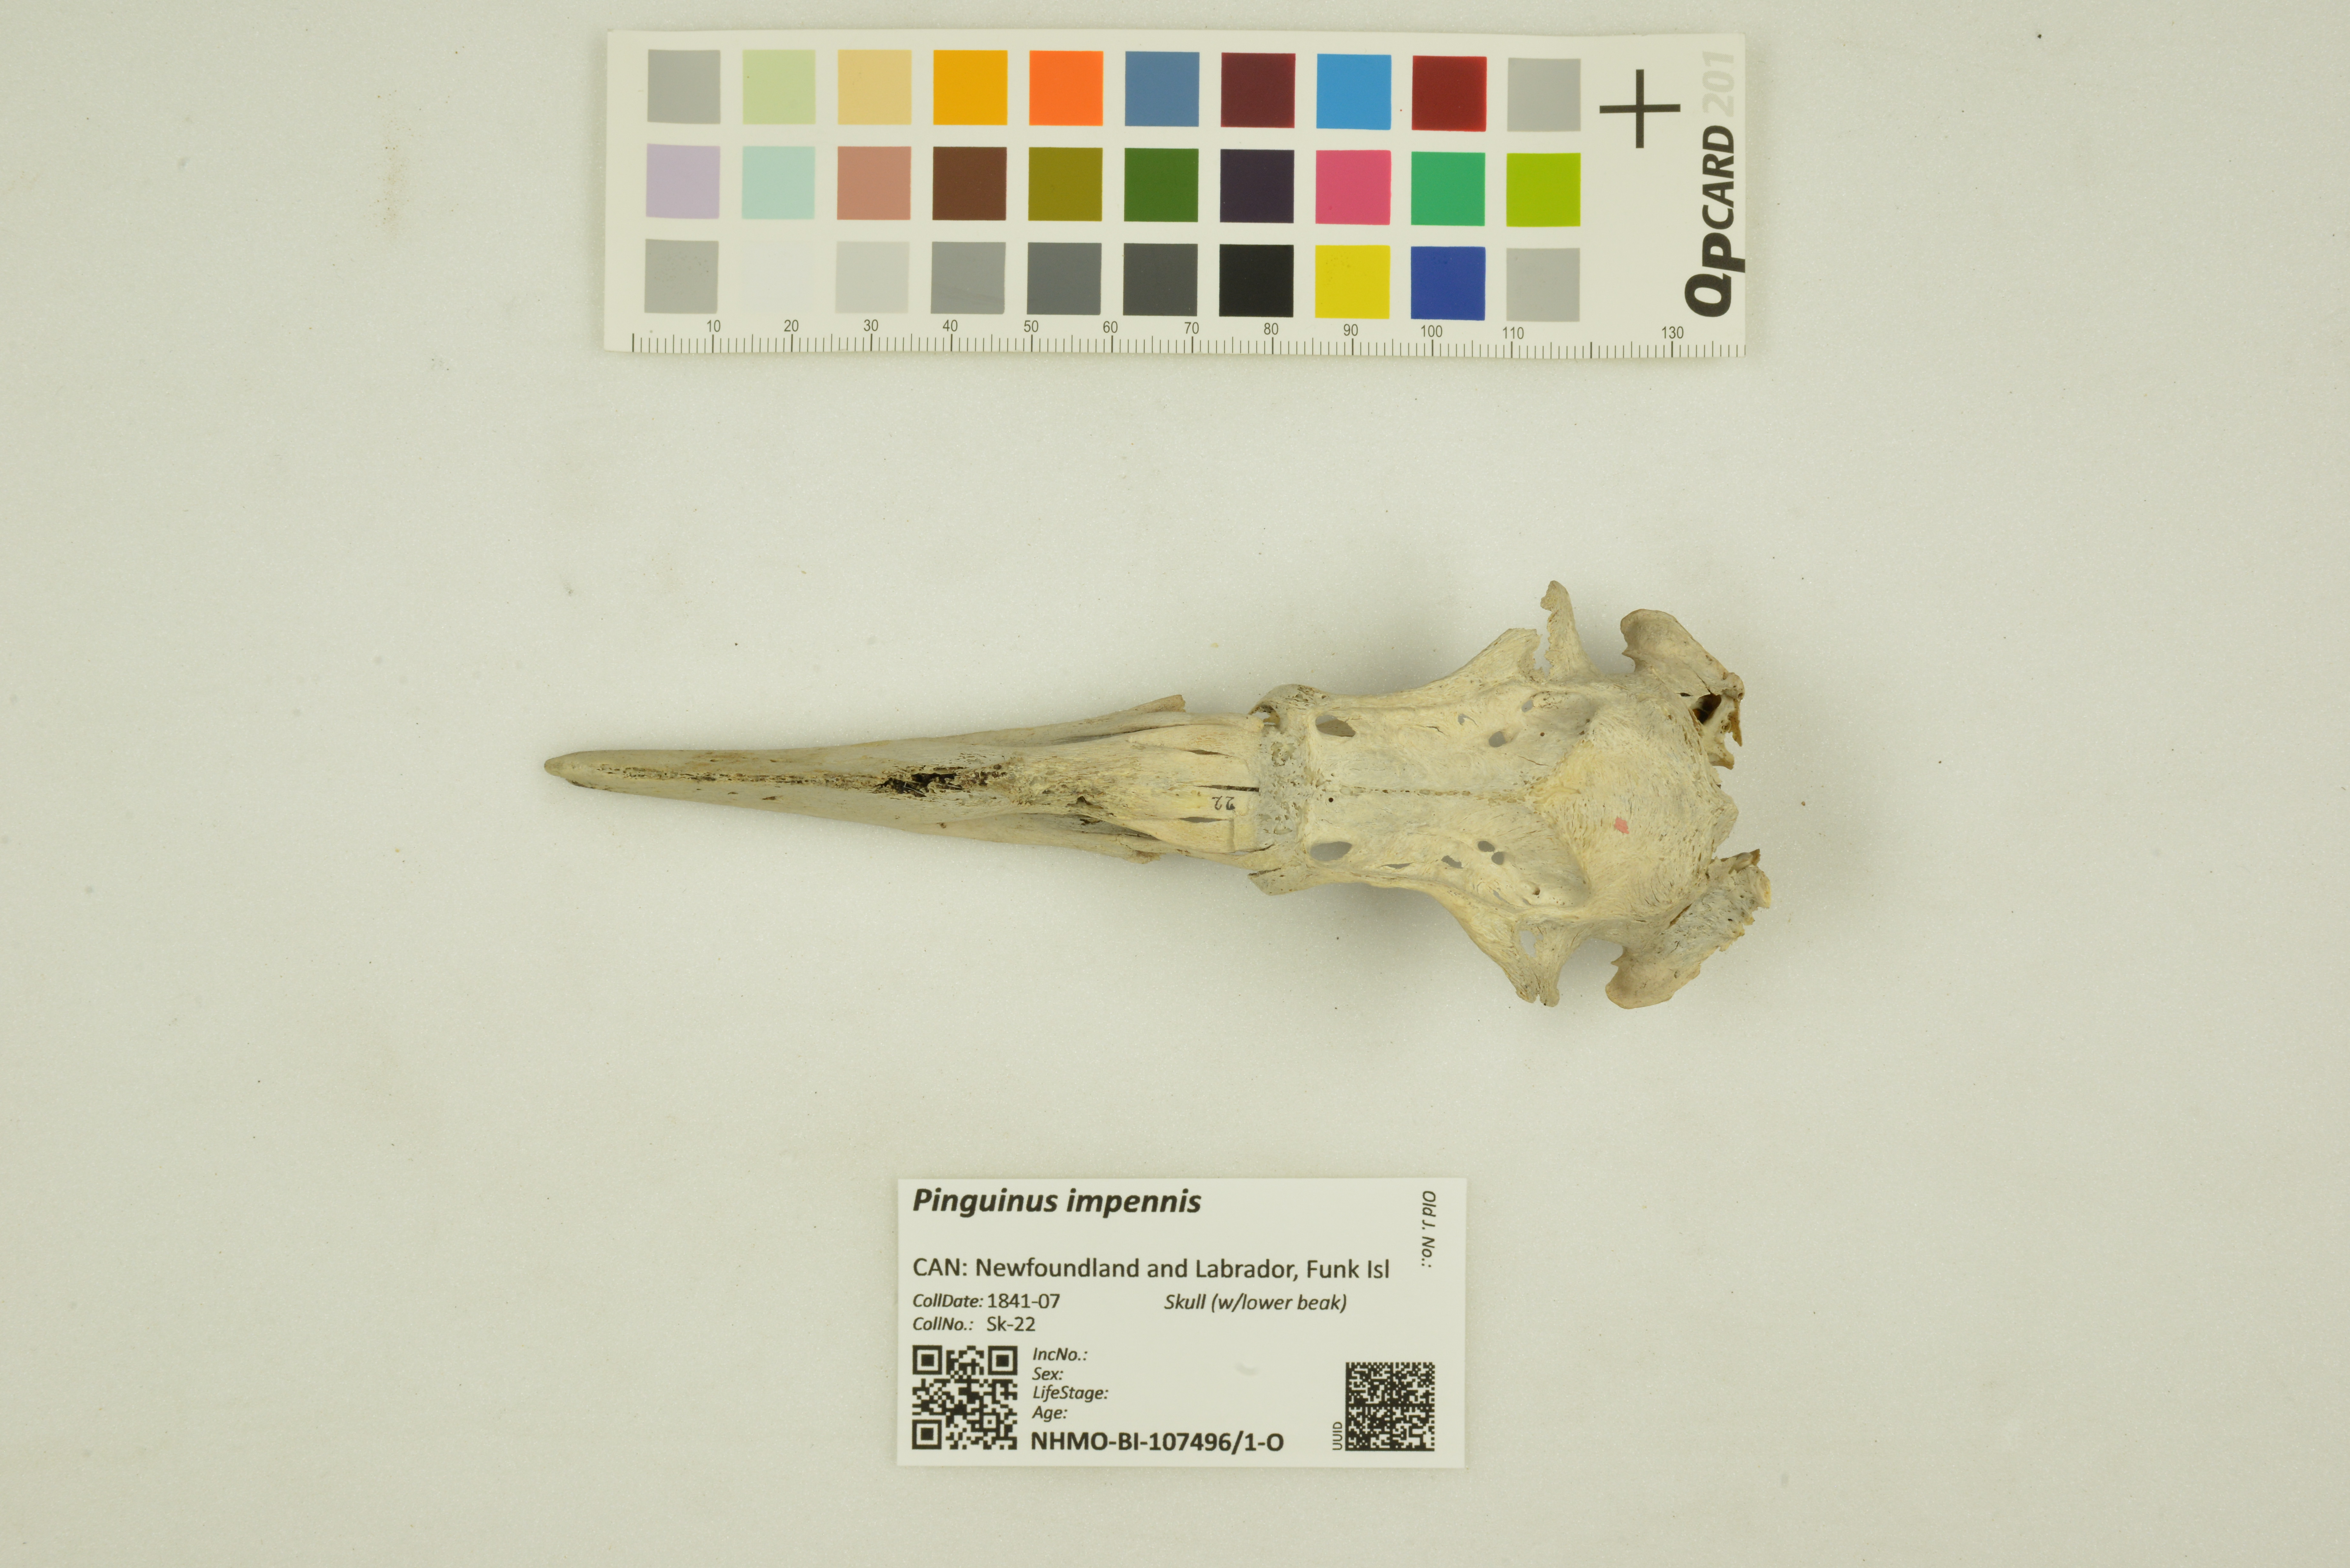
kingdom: Animalia
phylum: Chordata
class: Aves
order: Charadriiformes
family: Alcidae
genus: Pinguinus
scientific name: Pinguinus impennis
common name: Great auk
